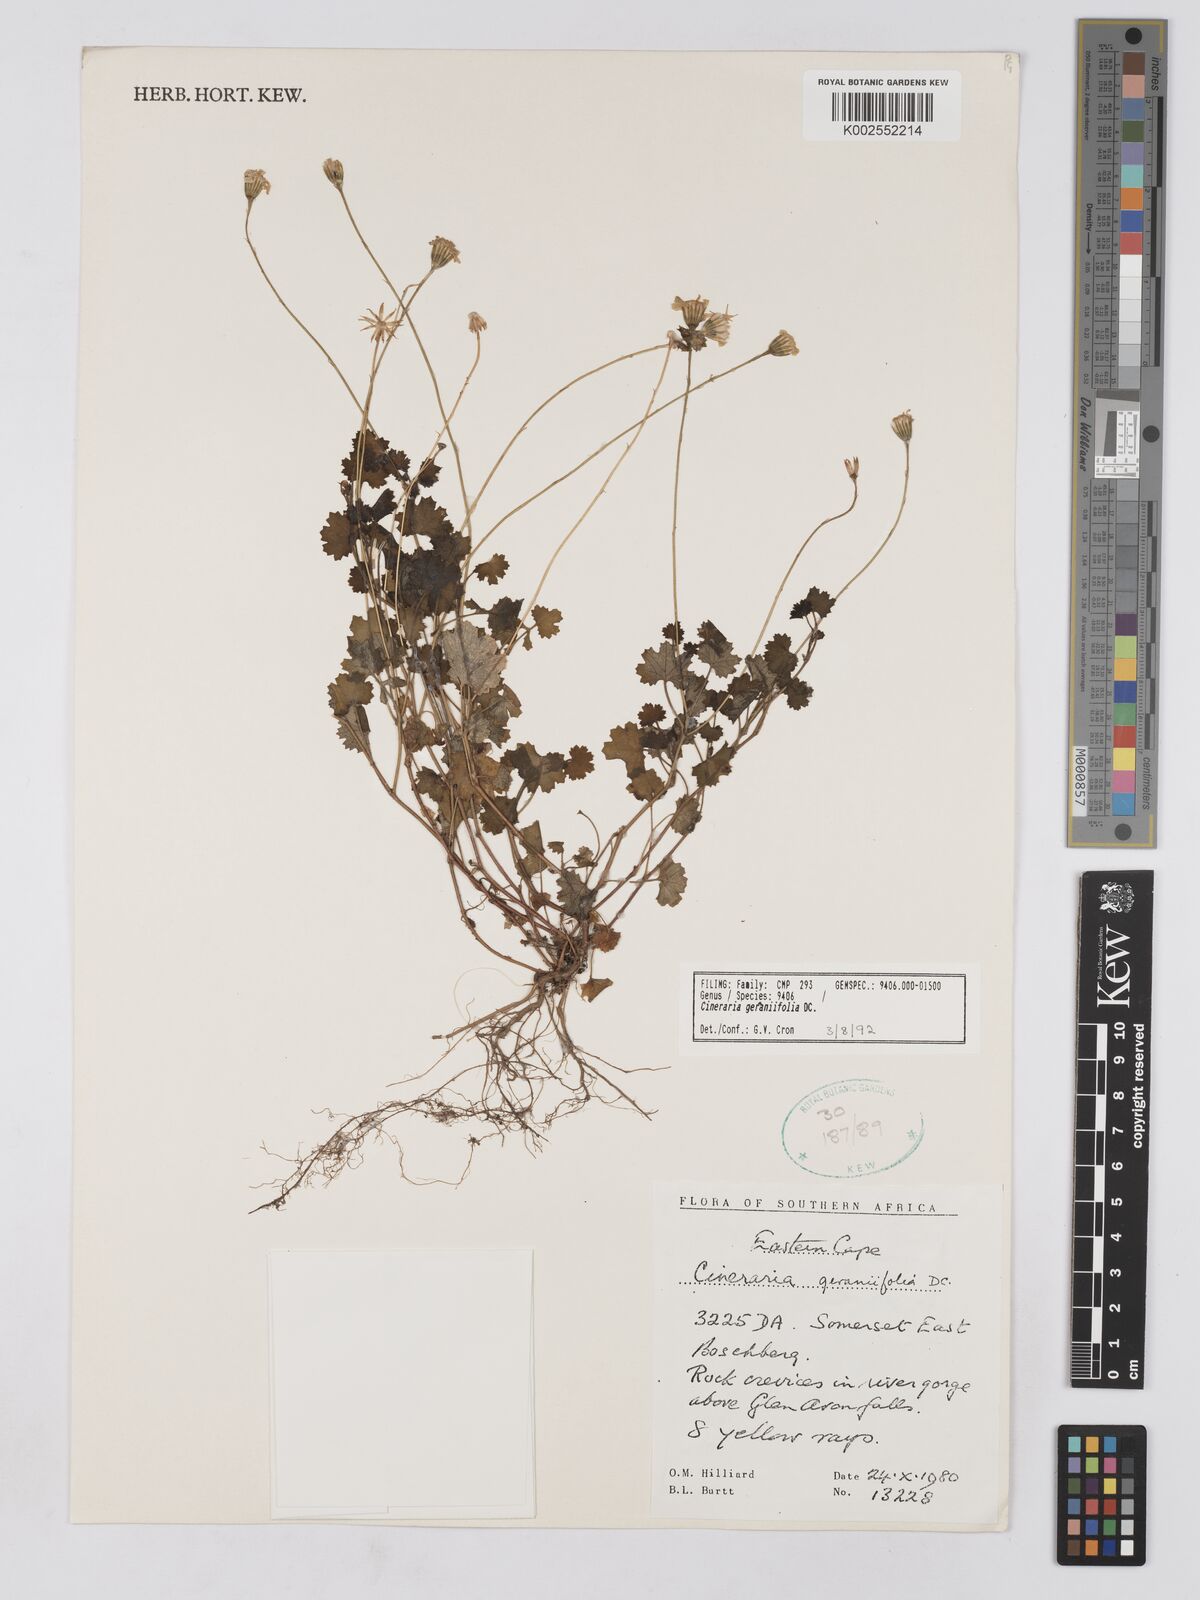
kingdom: Plantae
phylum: Tracheophyta
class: Magnoliopsida
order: Asterales
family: Asteraceae
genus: Cineraria
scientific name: Cineraria geraniifolia
